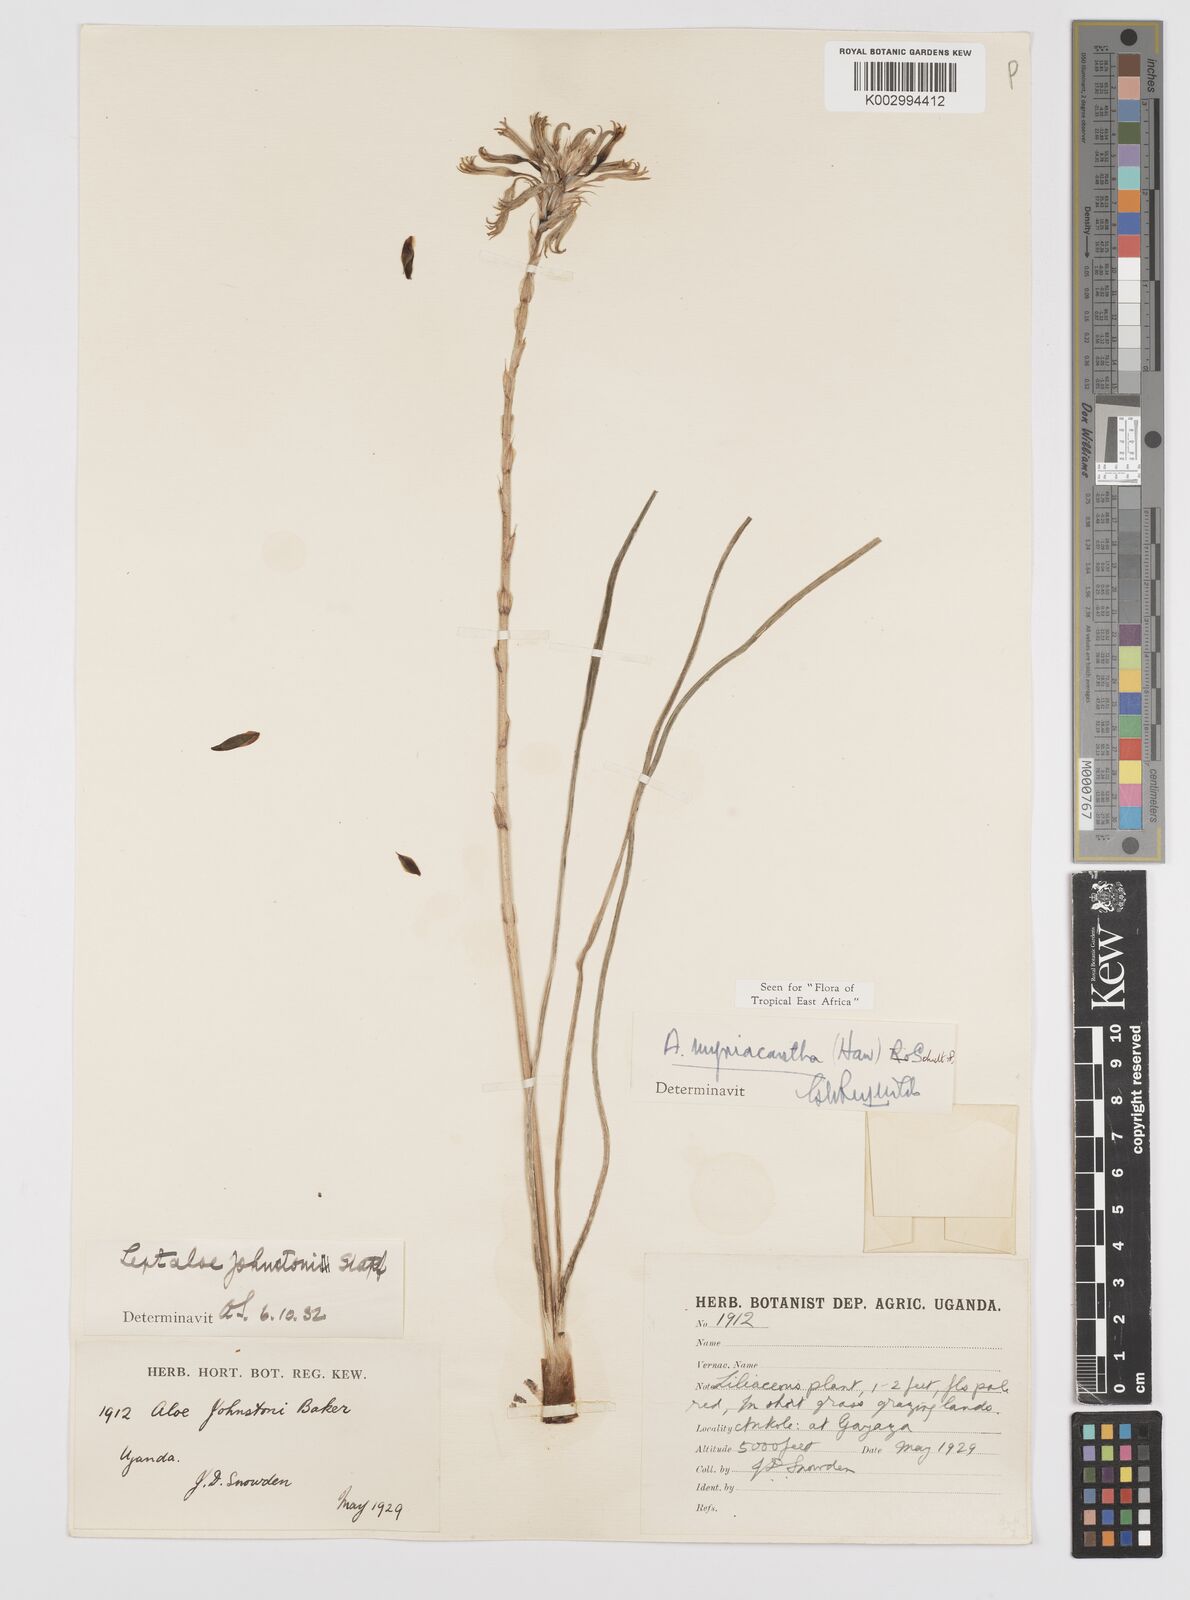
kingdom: Plantae
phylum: Tracheophyta
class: Liliopsida
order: Asparagales
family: Asphodelaceae
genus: Aloe
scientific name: Aloe myriacantha
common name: Grass aloe
